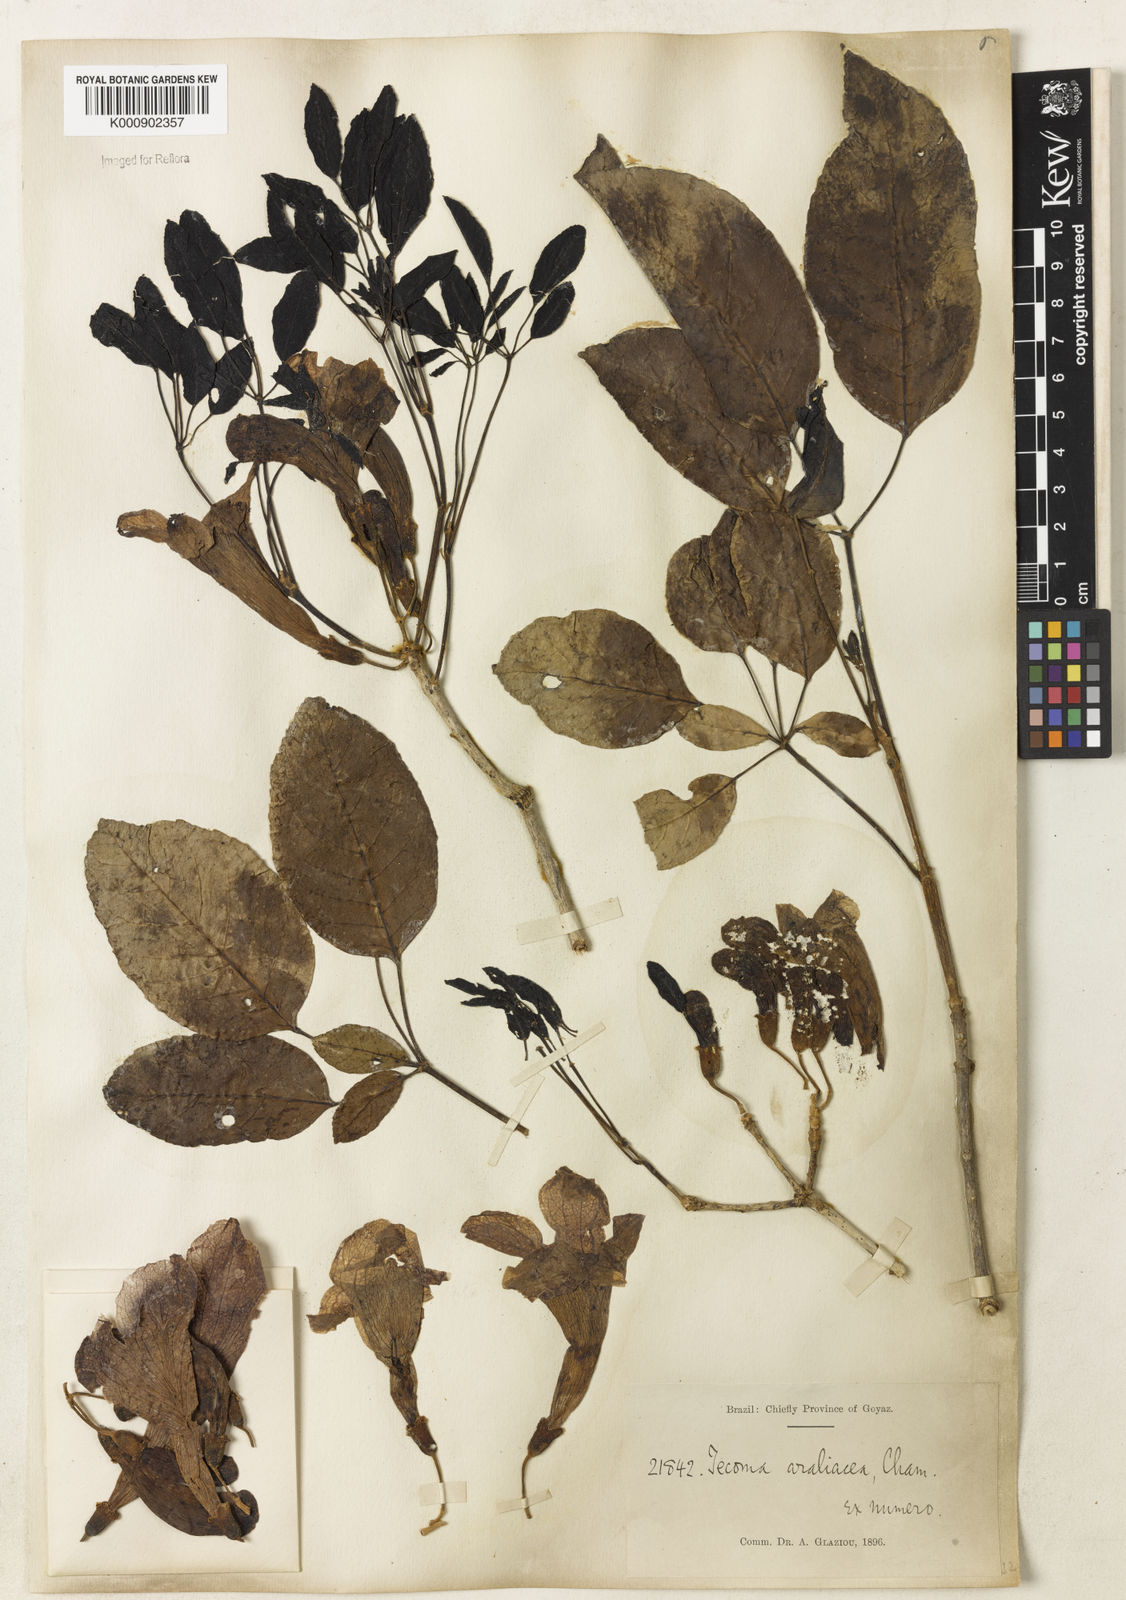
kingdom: Plantae
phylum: Tracheophyta
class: Magnoliopsida
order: Lamiales
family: Bignoniaceae
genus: Handroanthus
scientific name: Handroanthus serratifolius
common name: Yellow ipe
